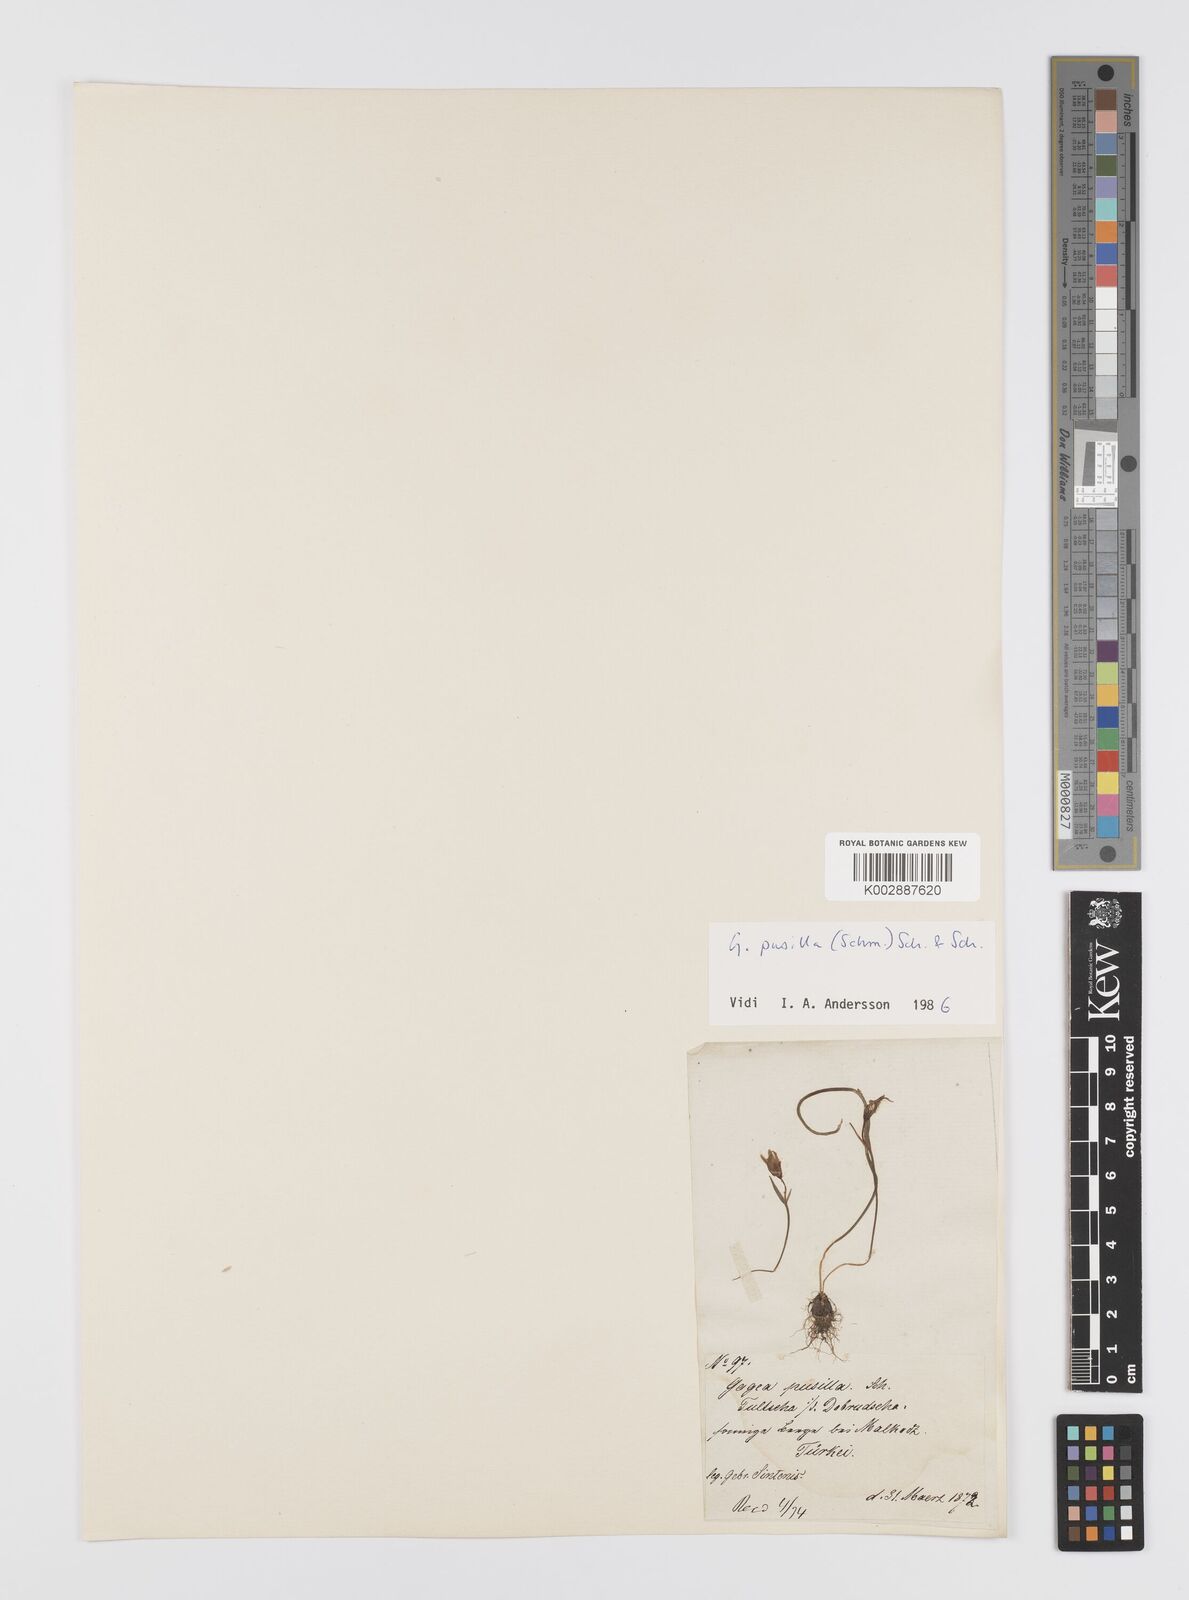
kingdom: Plantae
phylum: Tracheophyta
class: Liliopsida
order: Liliales
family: Liliaceae
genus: Gagea
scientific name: Gagea pusilla
